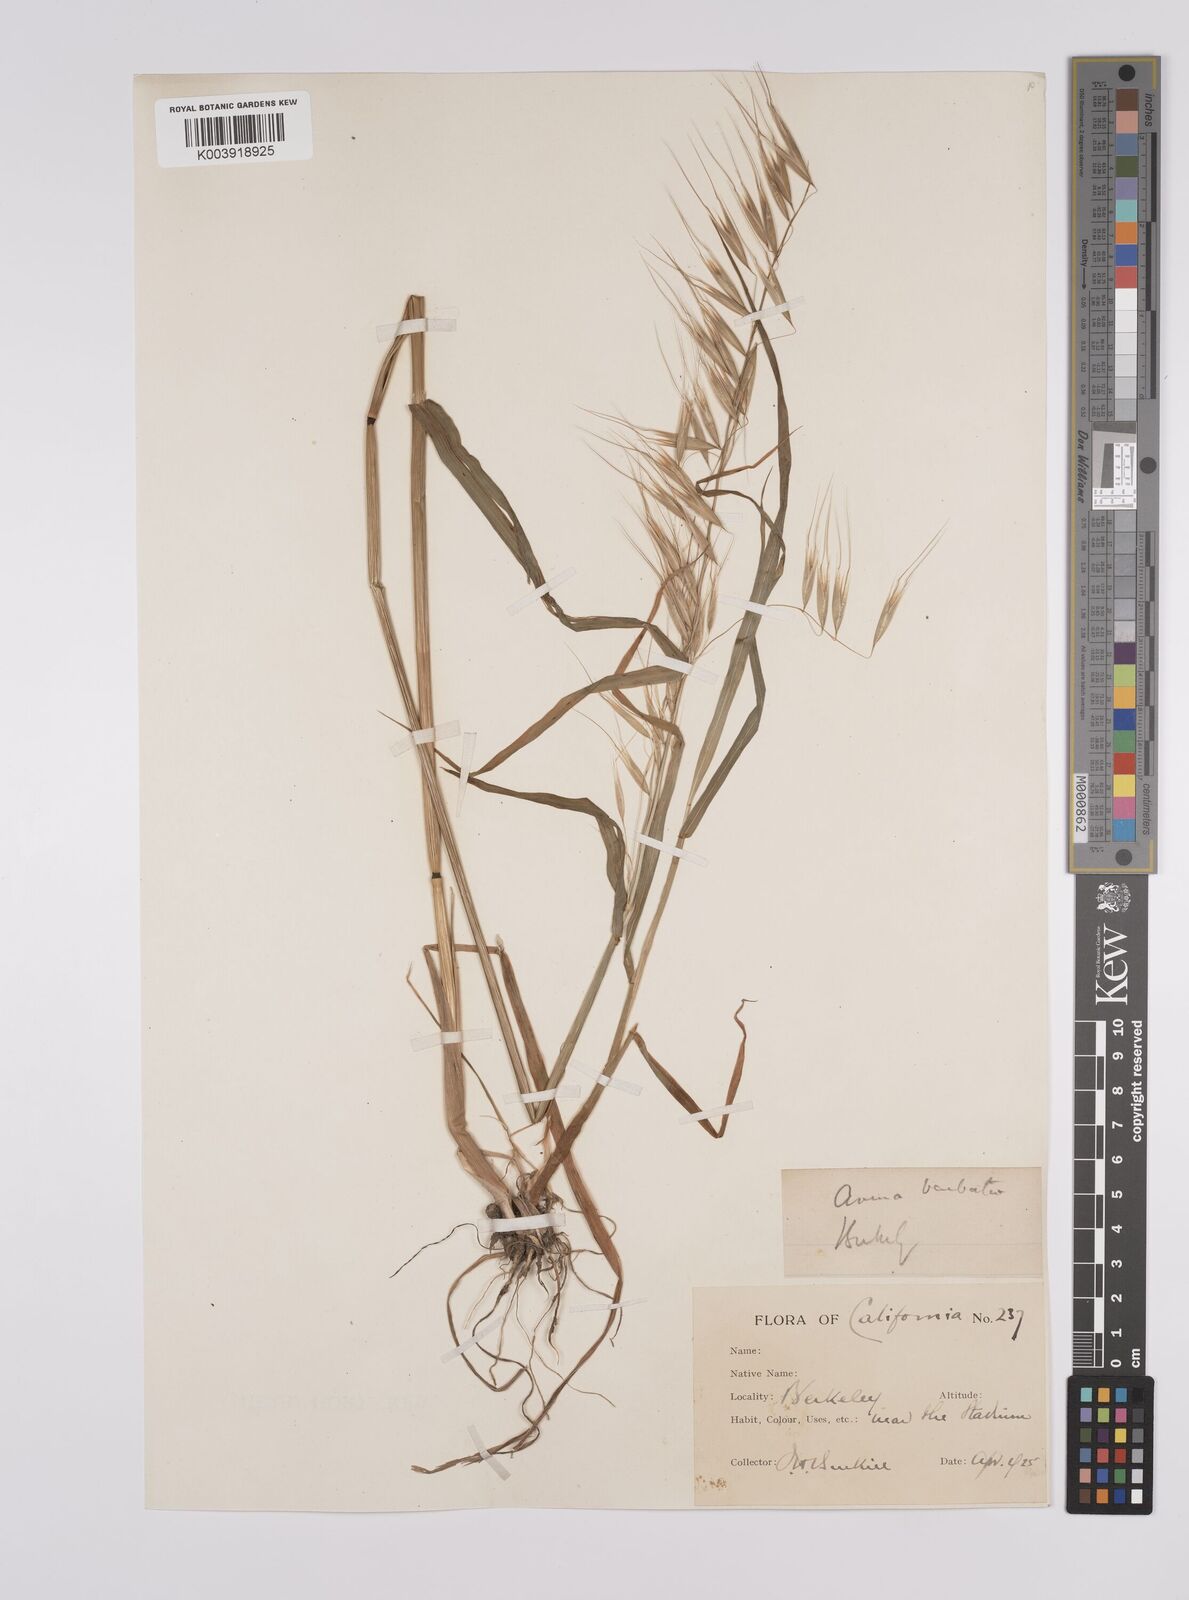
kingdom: Plantae
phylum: Tracheophyta
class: Liliopsida
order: Poales
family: Poaceae
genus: Avena
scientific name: Avena
